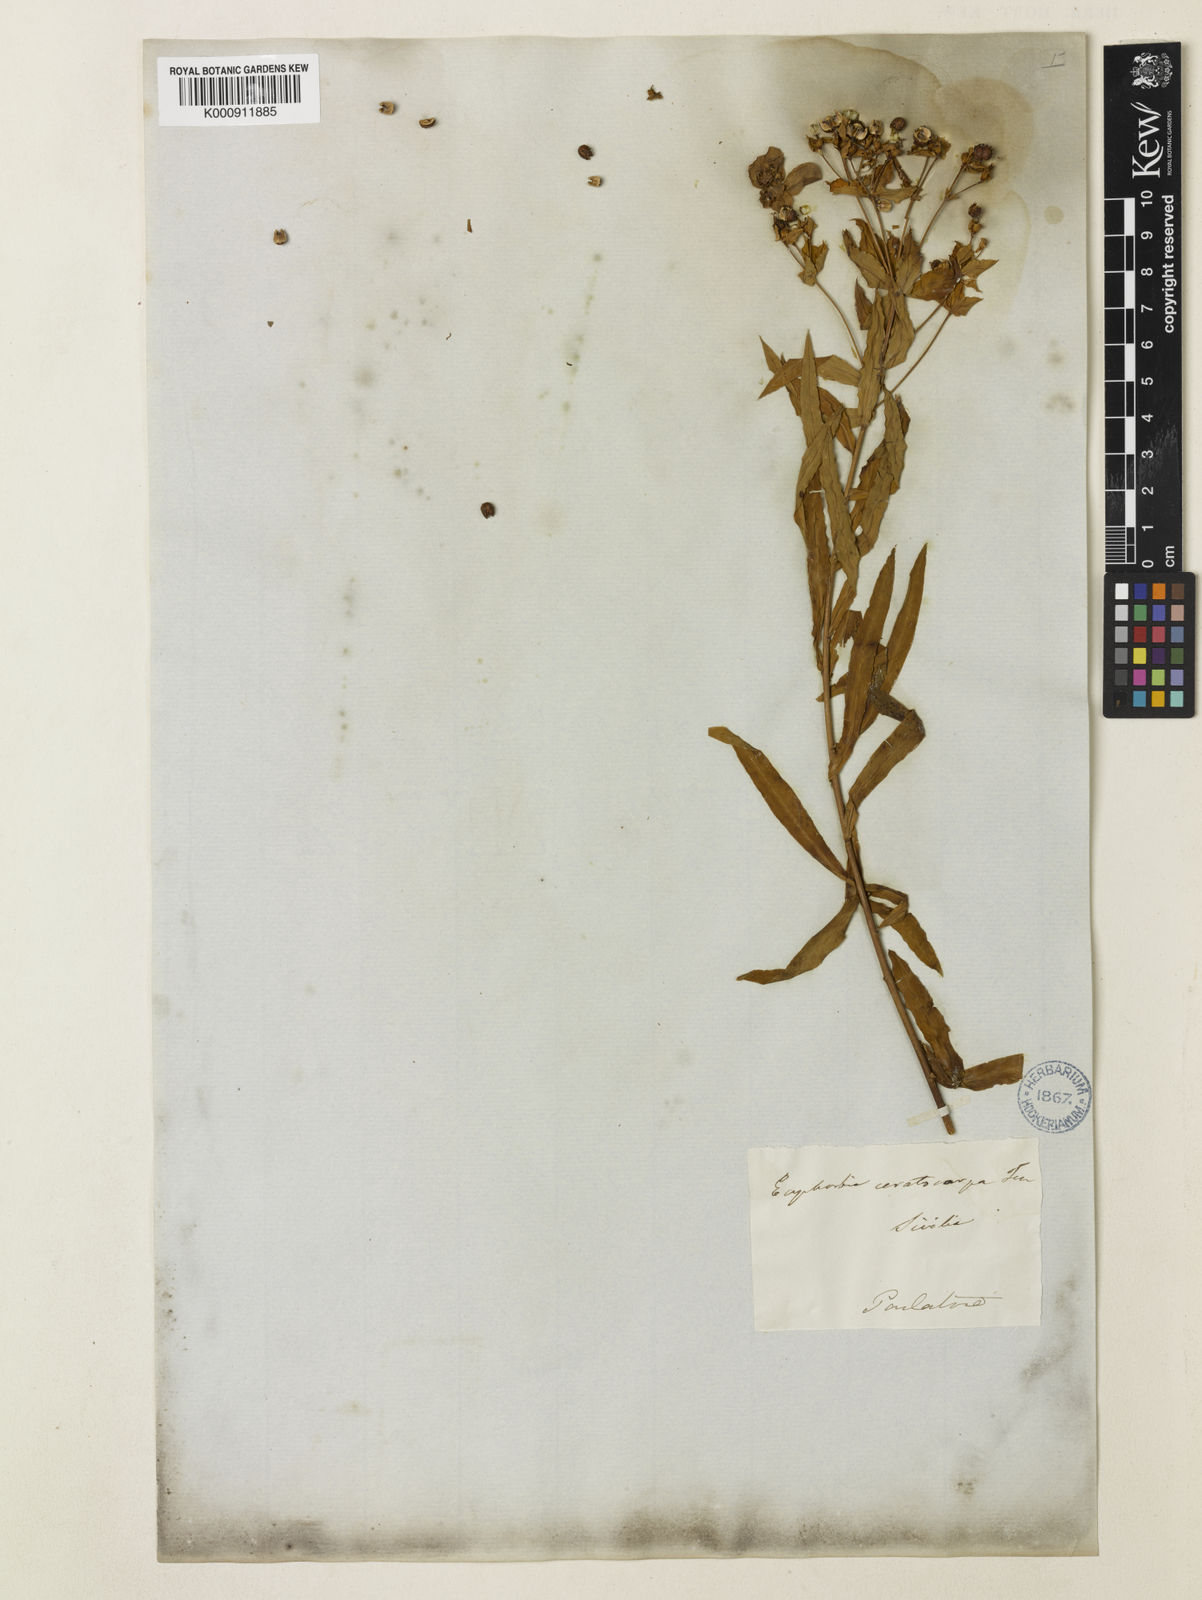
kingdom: Plantae
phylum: Tracheophyta
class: Magnoliopsida
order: Malpighiales
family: Euphorbiaceae
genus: Euphorbia
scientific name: Euphorbia ceratocarpa
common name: Horned spurge
